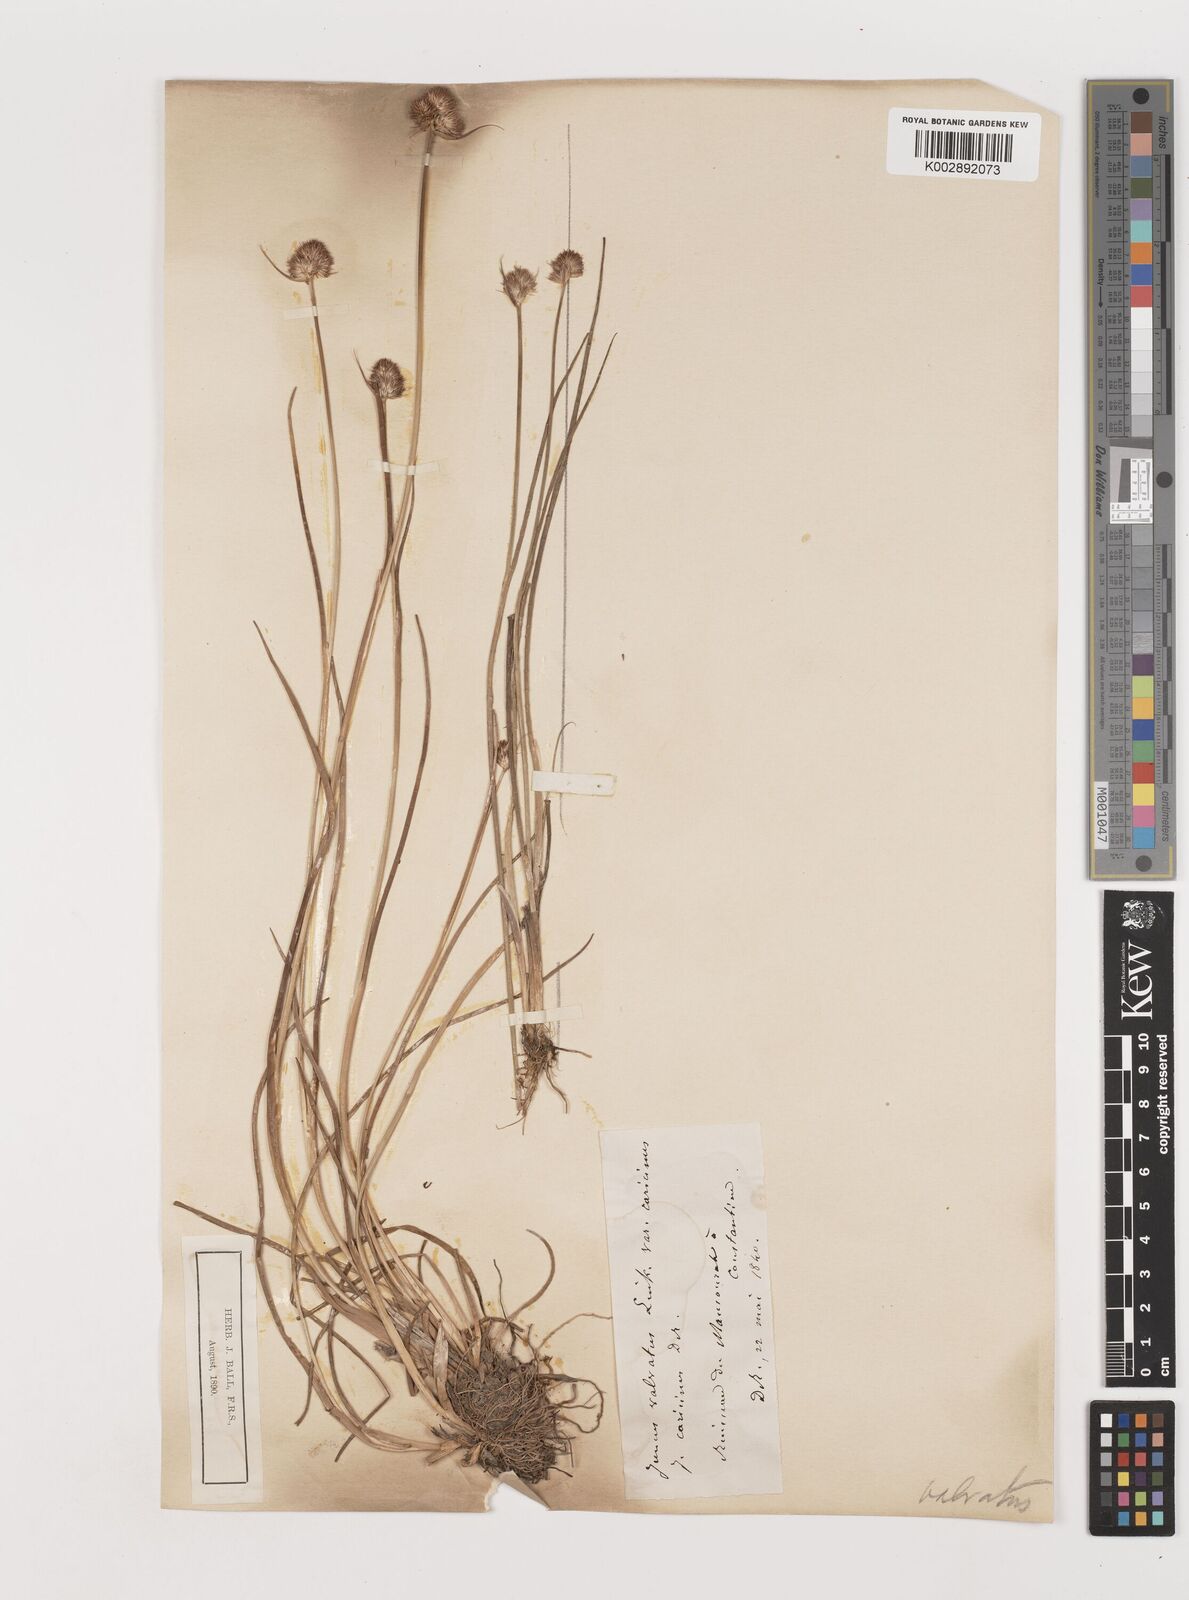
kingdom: Plantae
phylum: Tracheophyta
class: Liliopsida
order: Poales
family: Juncaceae
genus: Juncus
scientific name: Juncus valvatus
